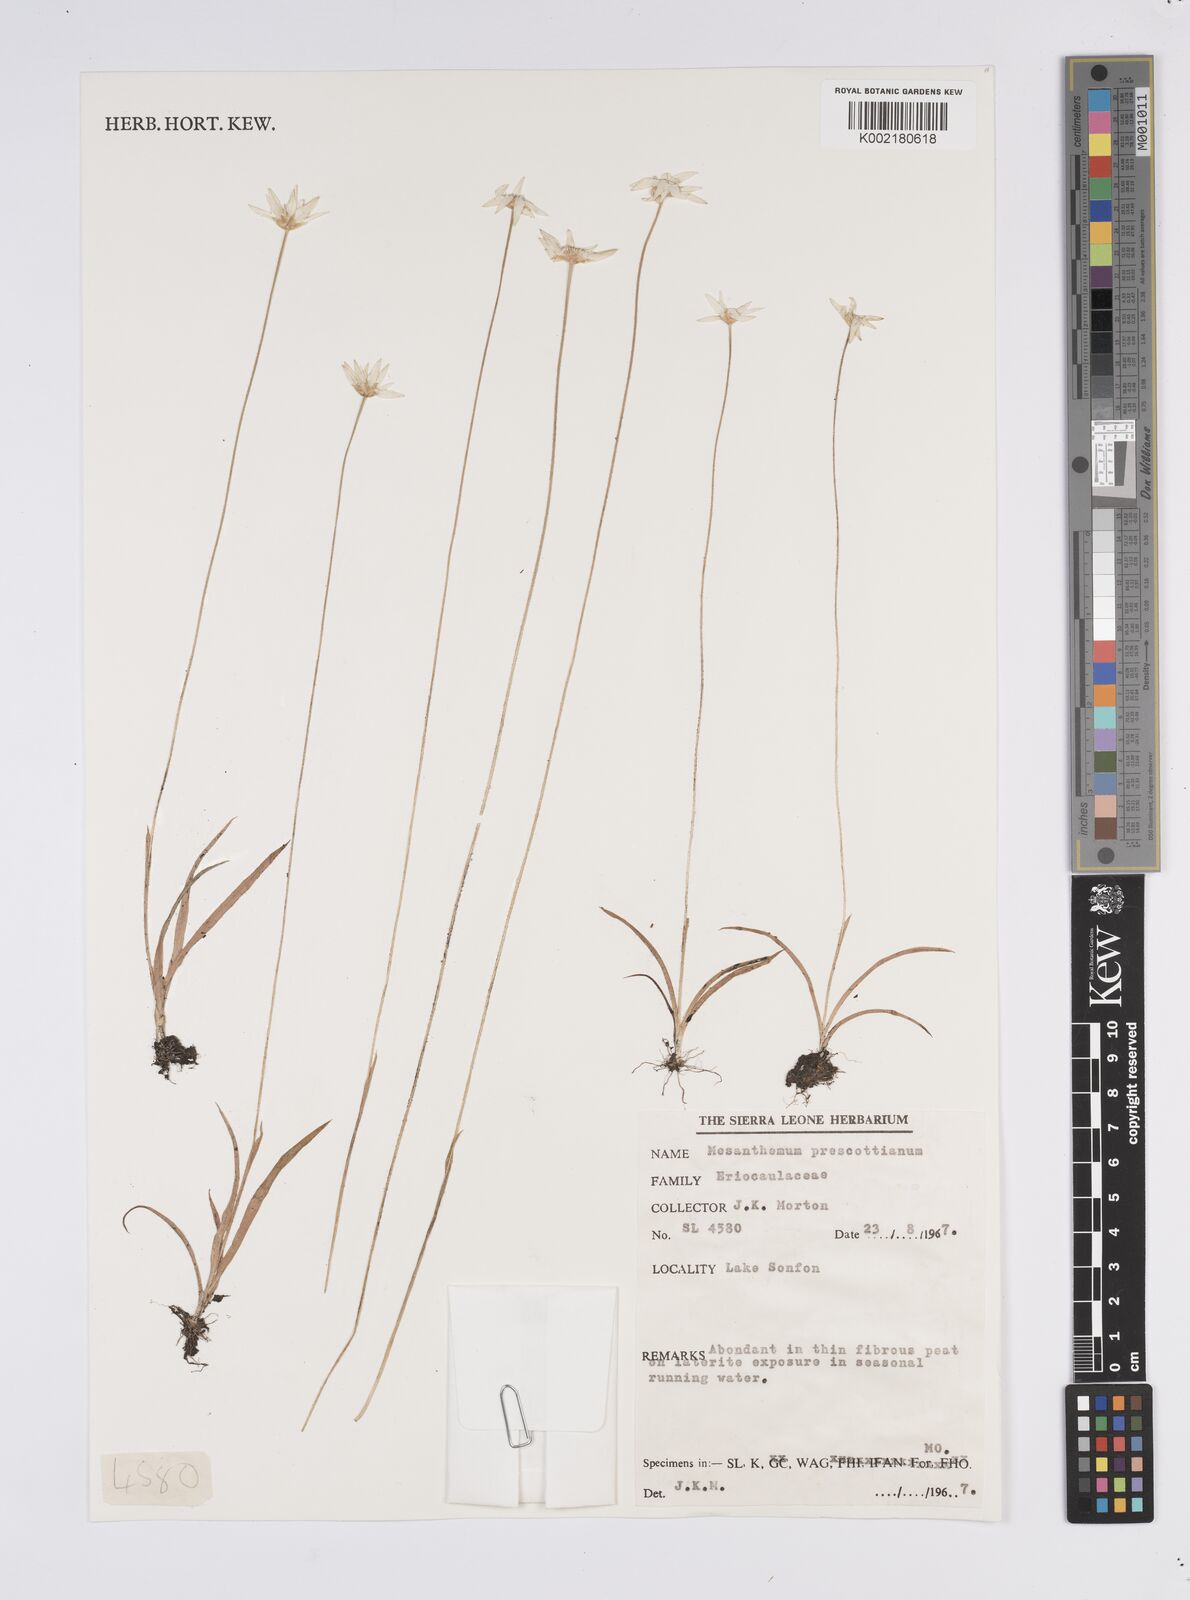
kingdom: Plantae
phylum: Tracheophyta
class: Liliopsida
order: Poales
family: Eriocaulaceae
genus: Mesanthemum
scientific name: Mesanthemum prescottianum
